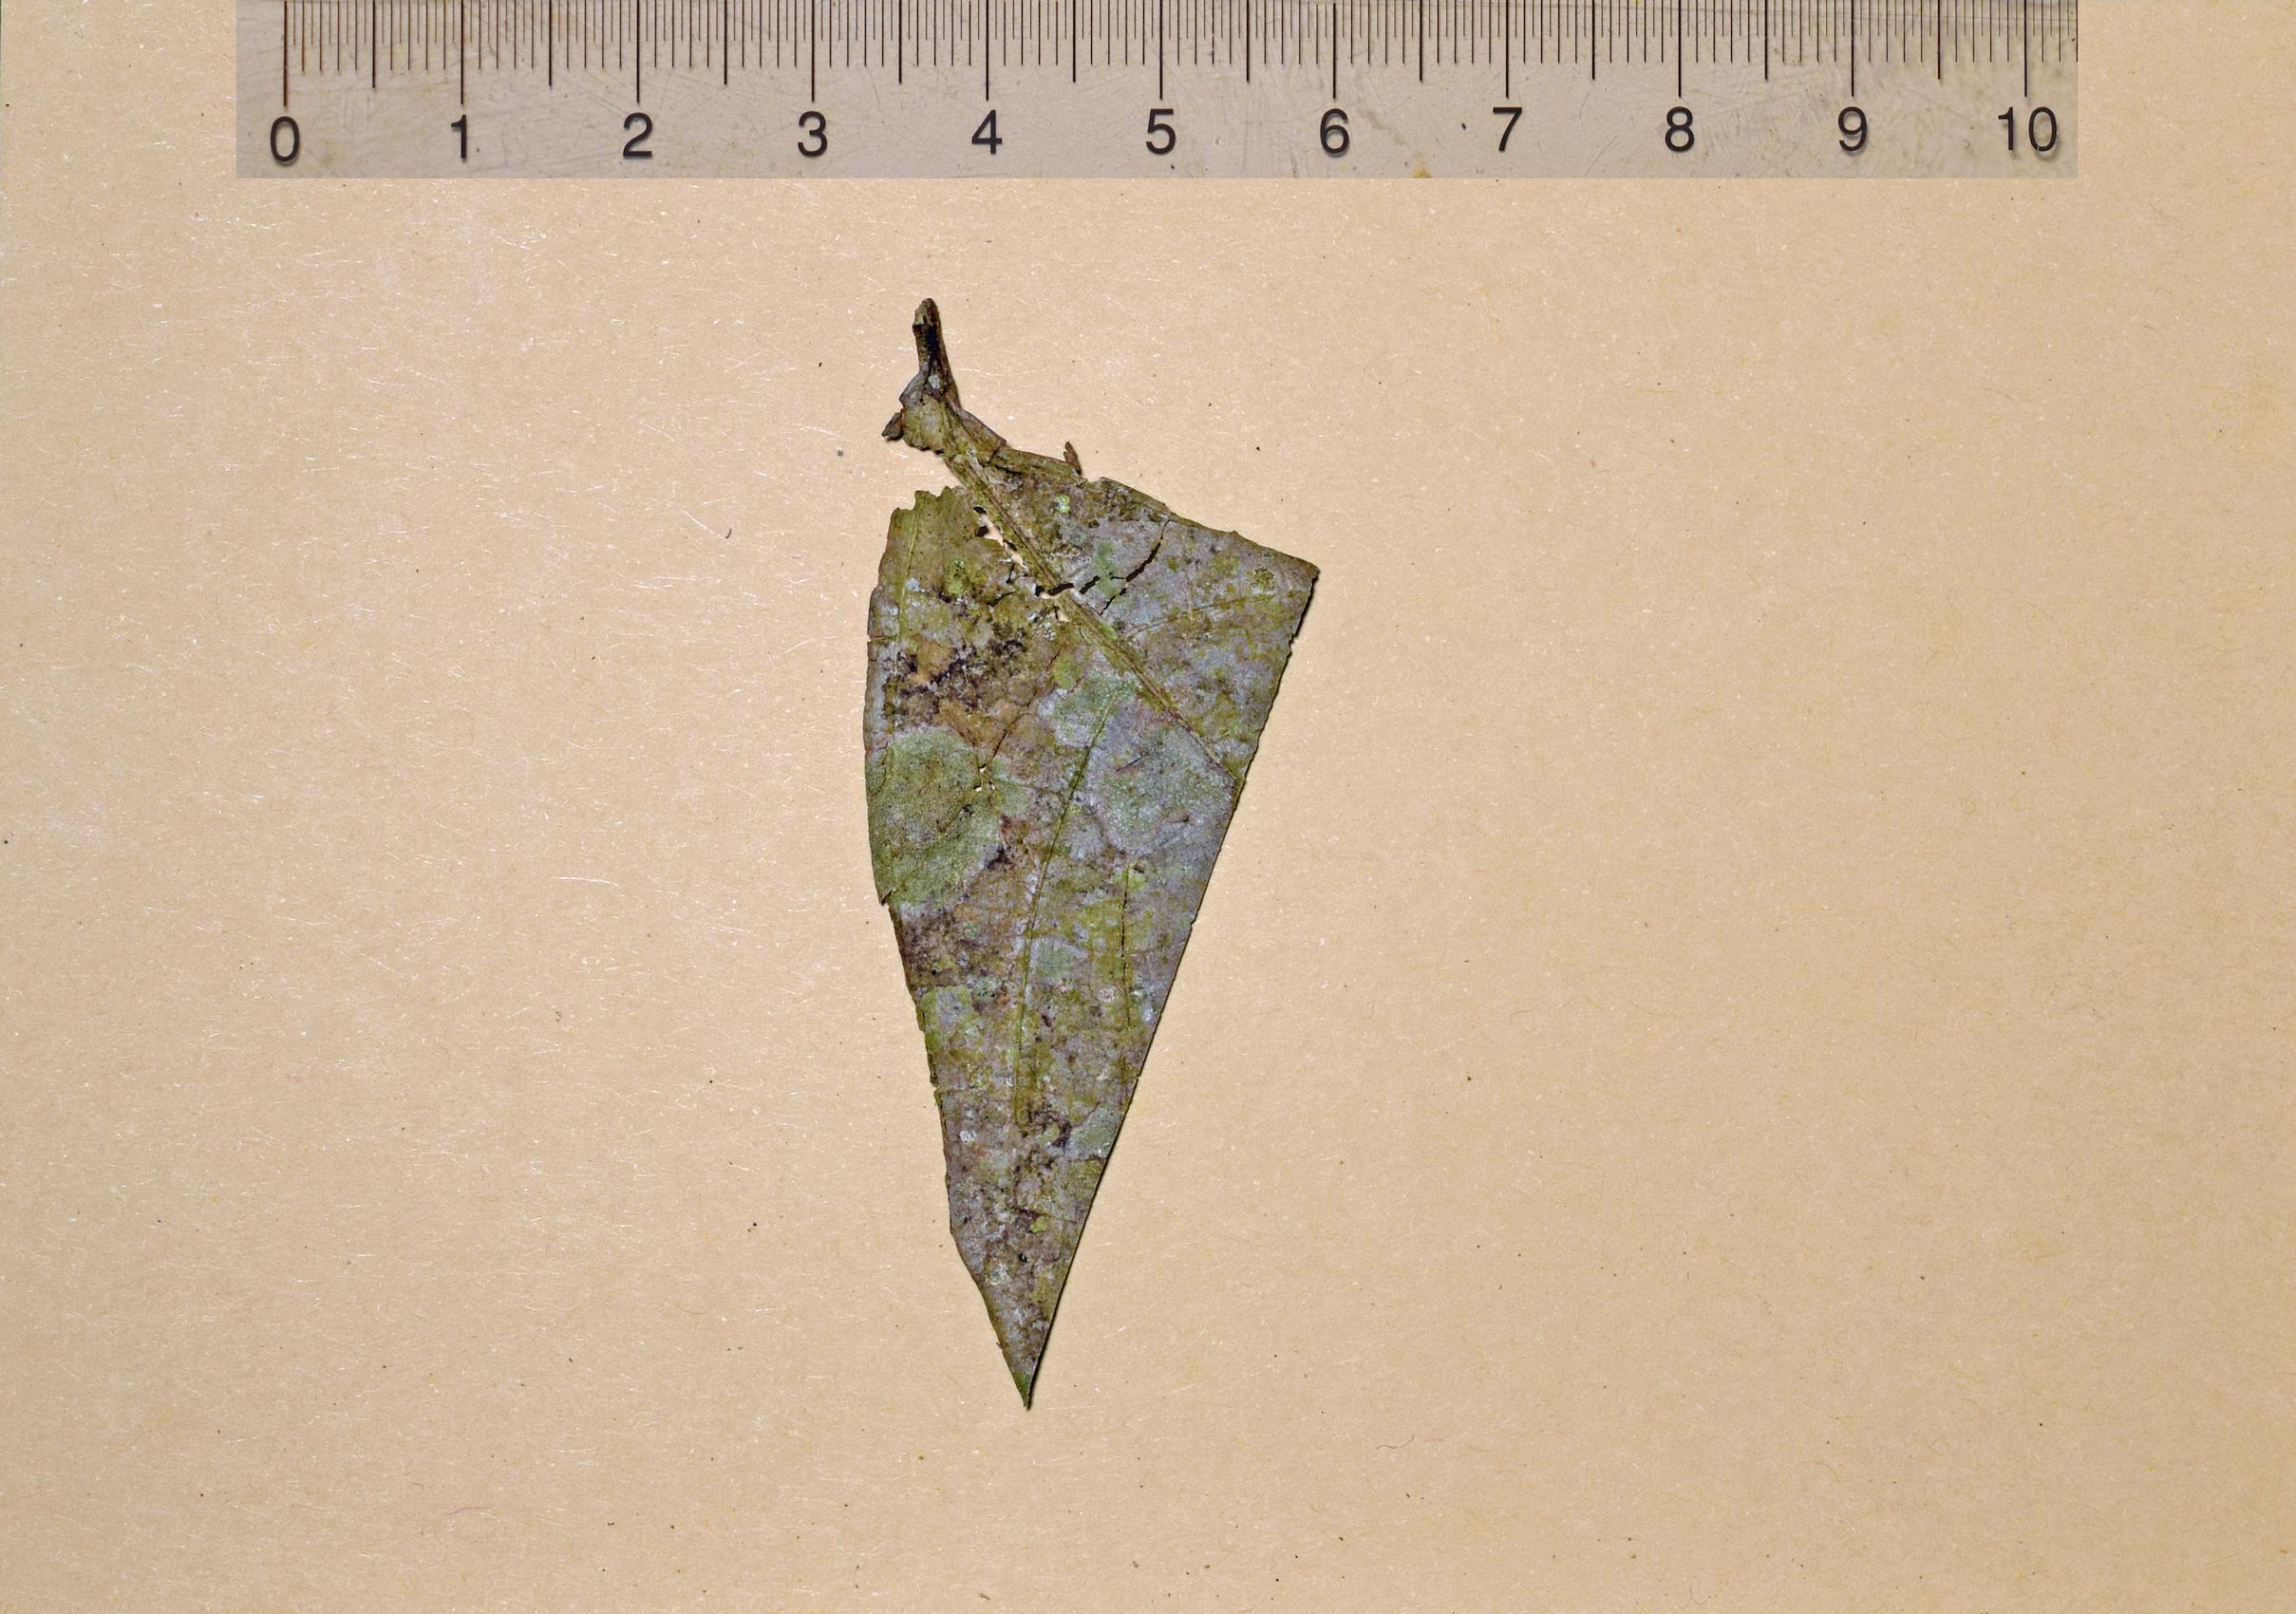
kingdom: Fungi
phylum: Ascomycota
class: Lecanoromycetes
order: Graphidales
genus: Sporocybomyces
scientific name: Sporocybomyces
